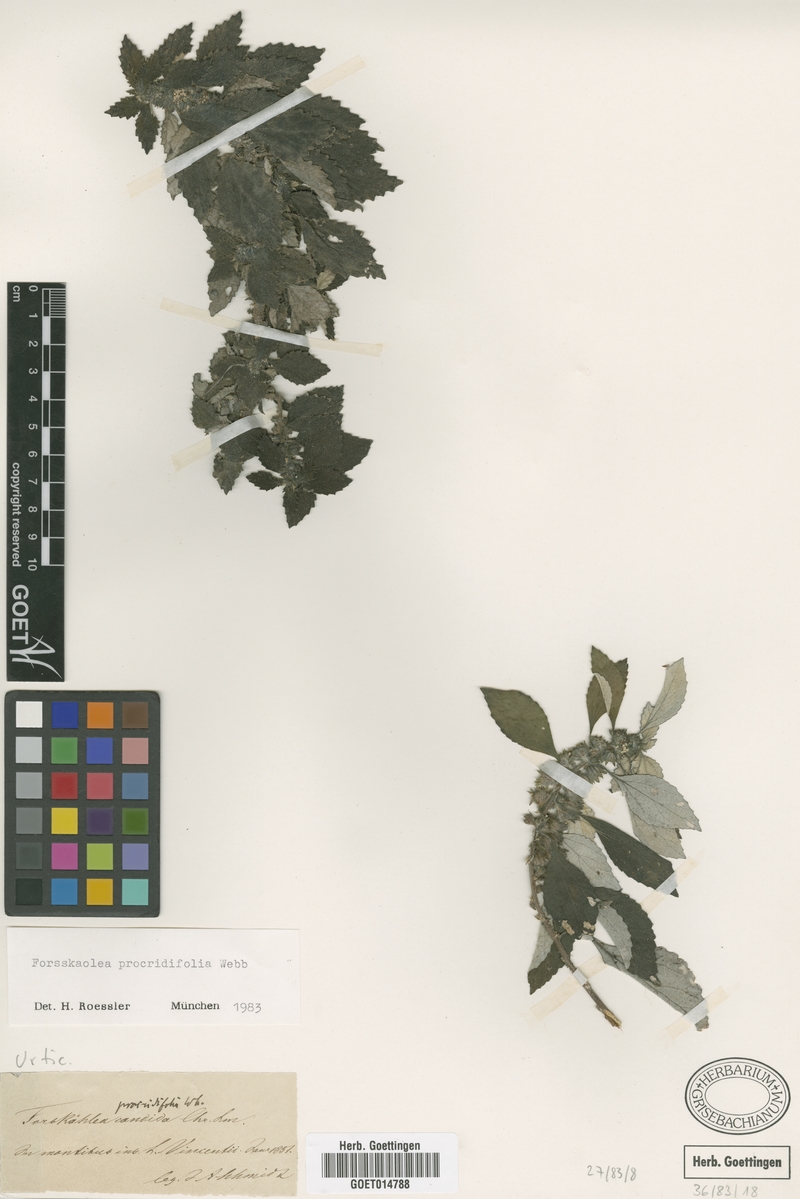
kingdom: Plantae
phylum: Tracheophyta
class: Magnoliopsida
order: Rosales
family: Urticaceae
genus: Forsskaolea
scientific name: Forsskaolea procridifolia
